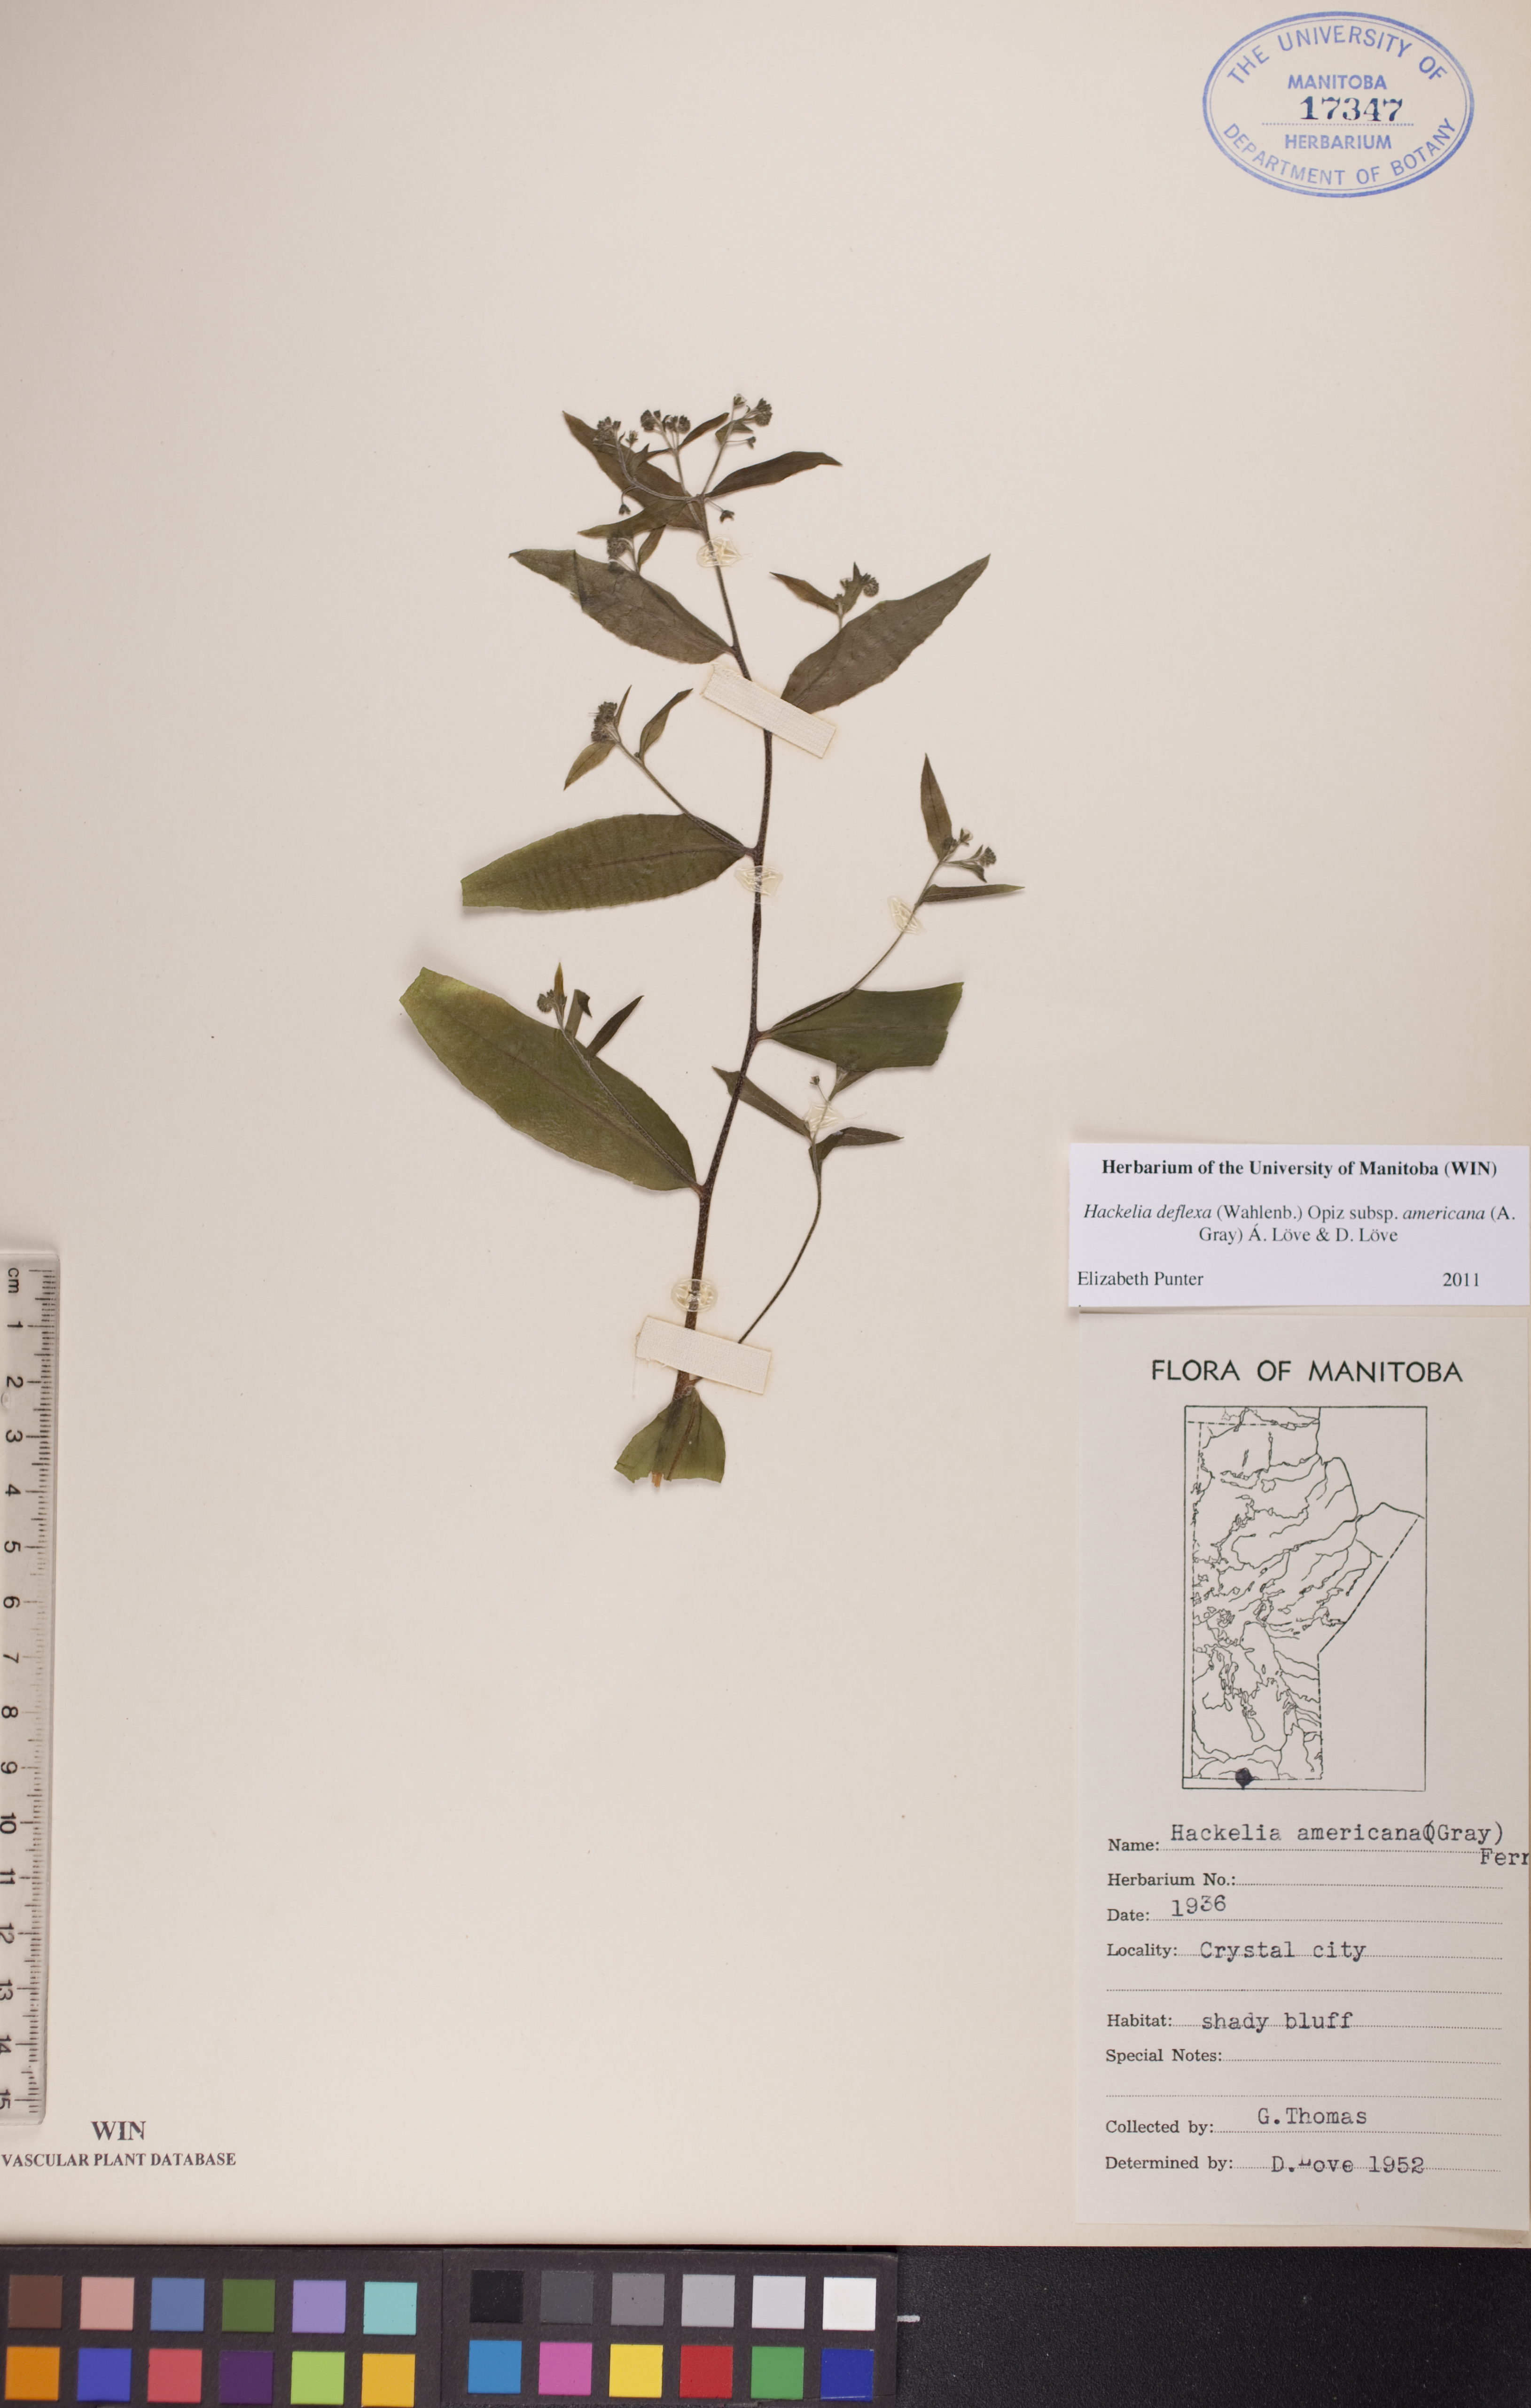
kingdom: Plantae
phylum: Tracheophyta
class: Magnoliopsida
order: Boraginales
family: Boraginaceae
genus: Hackelia
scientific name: Hackelia deflexa
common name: Nodding stickseed
